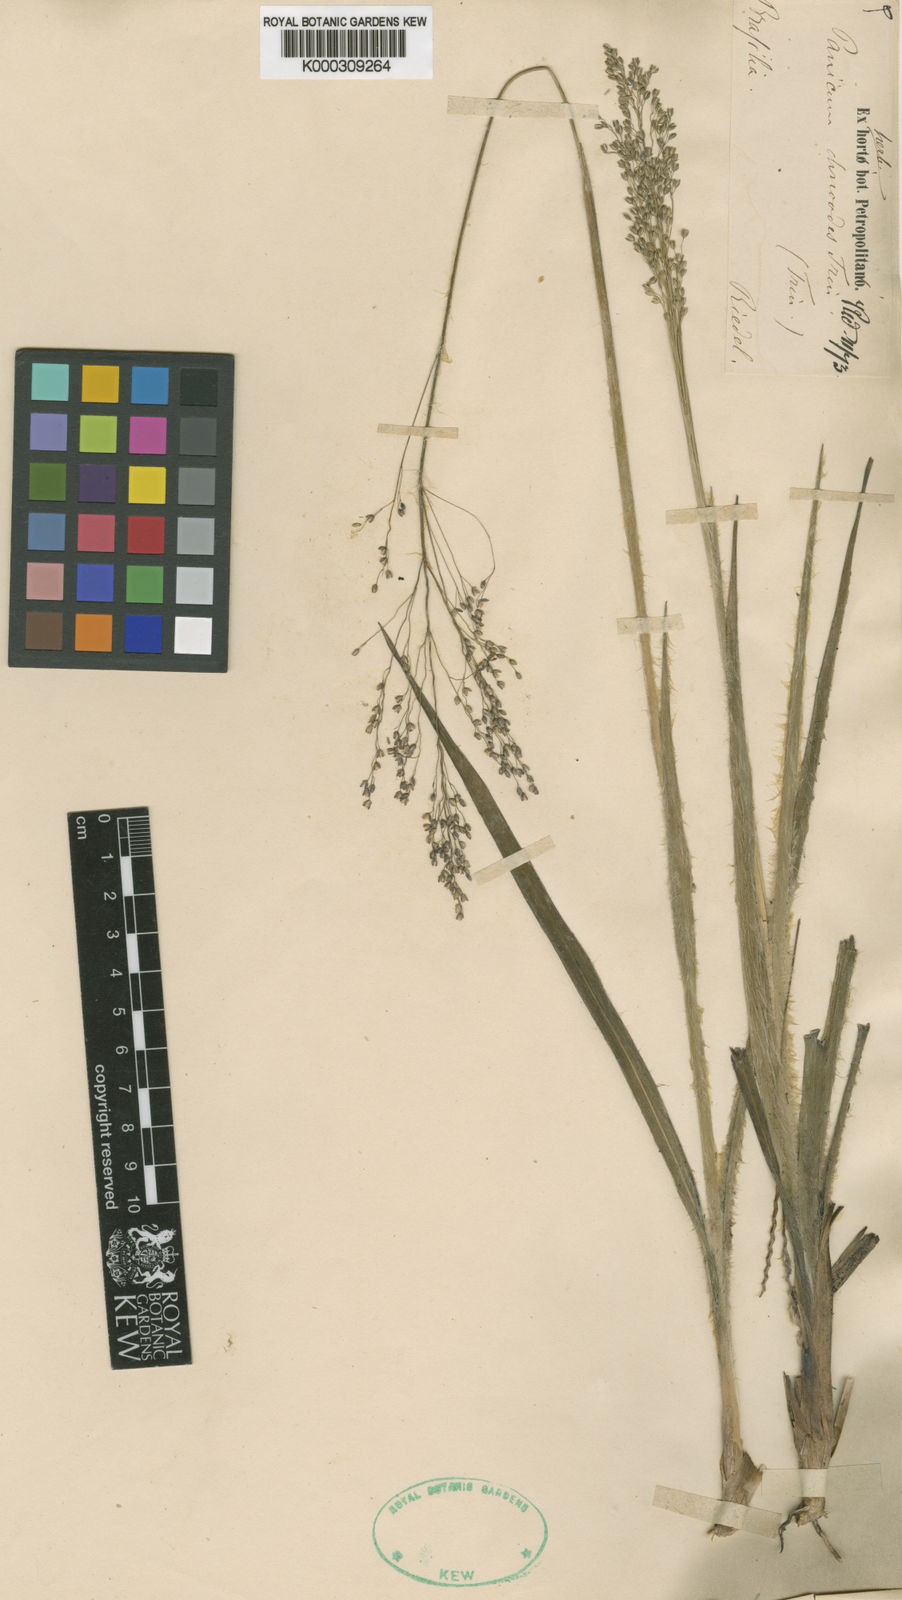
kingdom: Plantae
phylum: Tracheophyta
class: Liliopsida
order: Poales
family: Poaceae
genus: Apochloa
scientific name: Apochloa chnoodes
